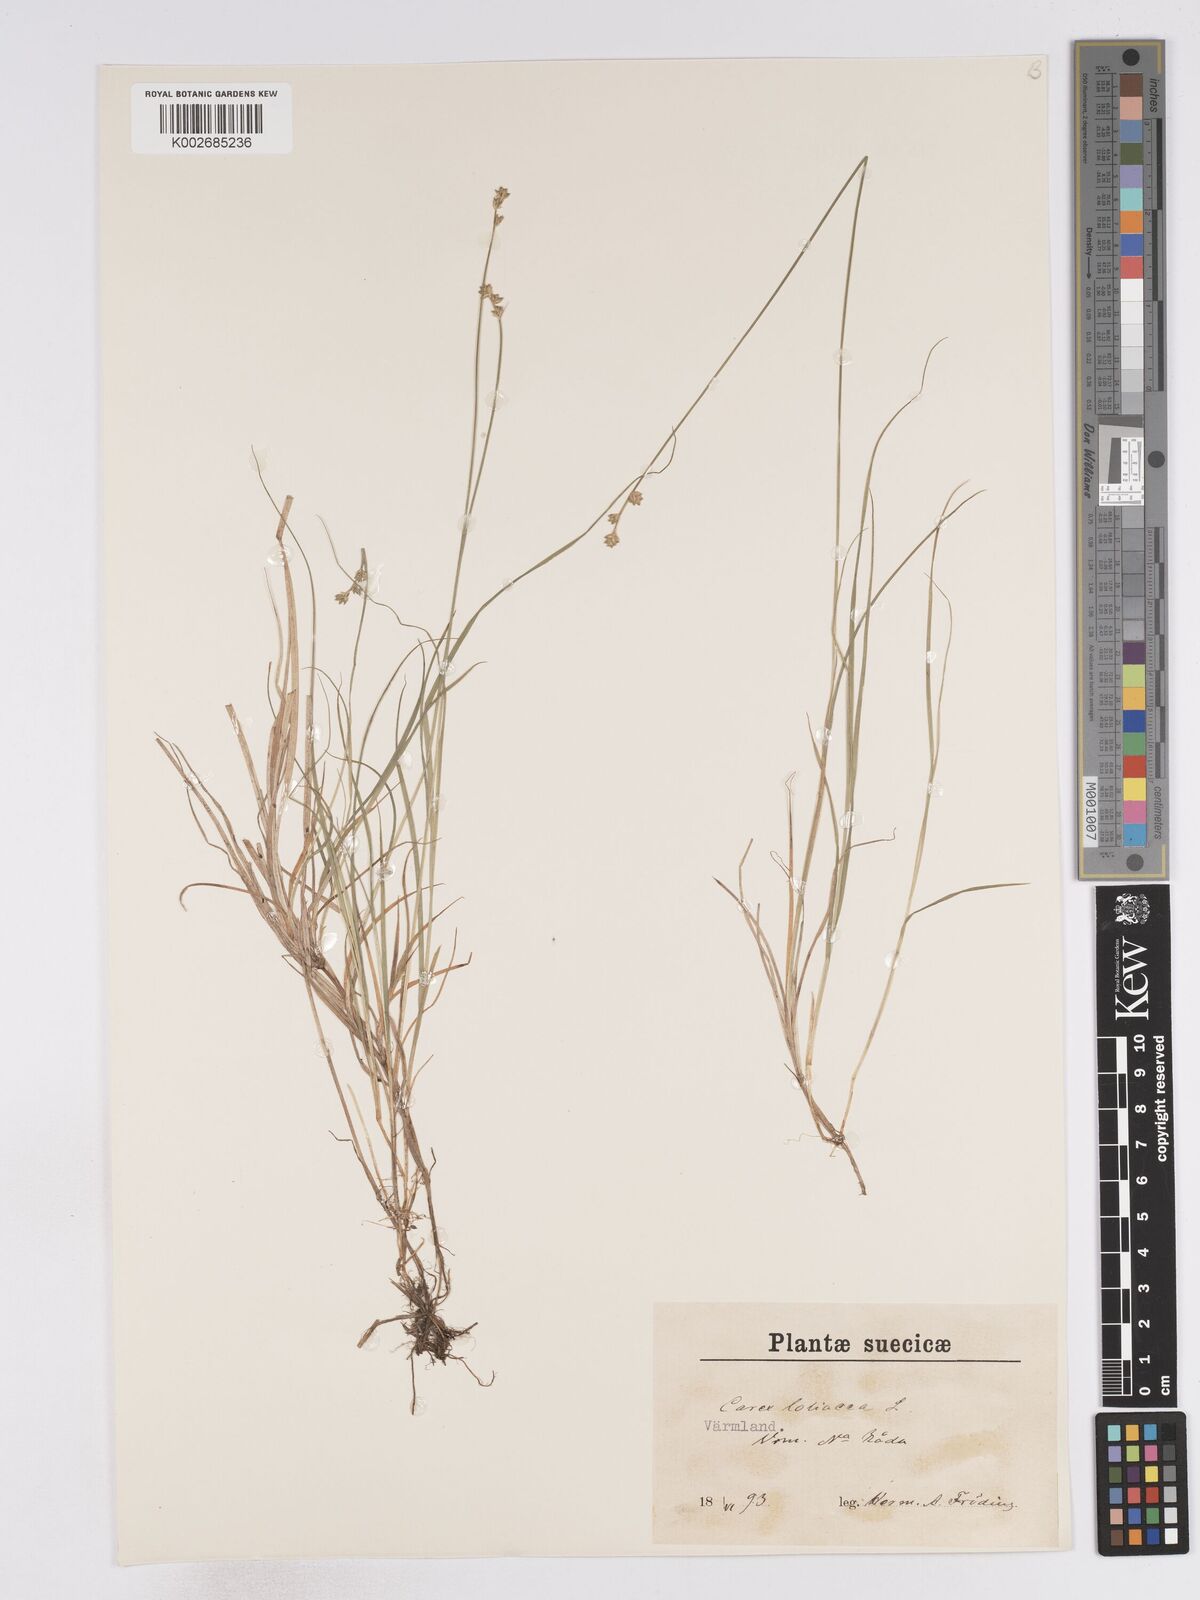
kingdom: Plantae
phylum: Tracheophyta
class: Liliopsida
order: Poales
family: Cyperaceae
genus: Carex
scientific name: Carex loliacea
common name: Ryegrass sedge
